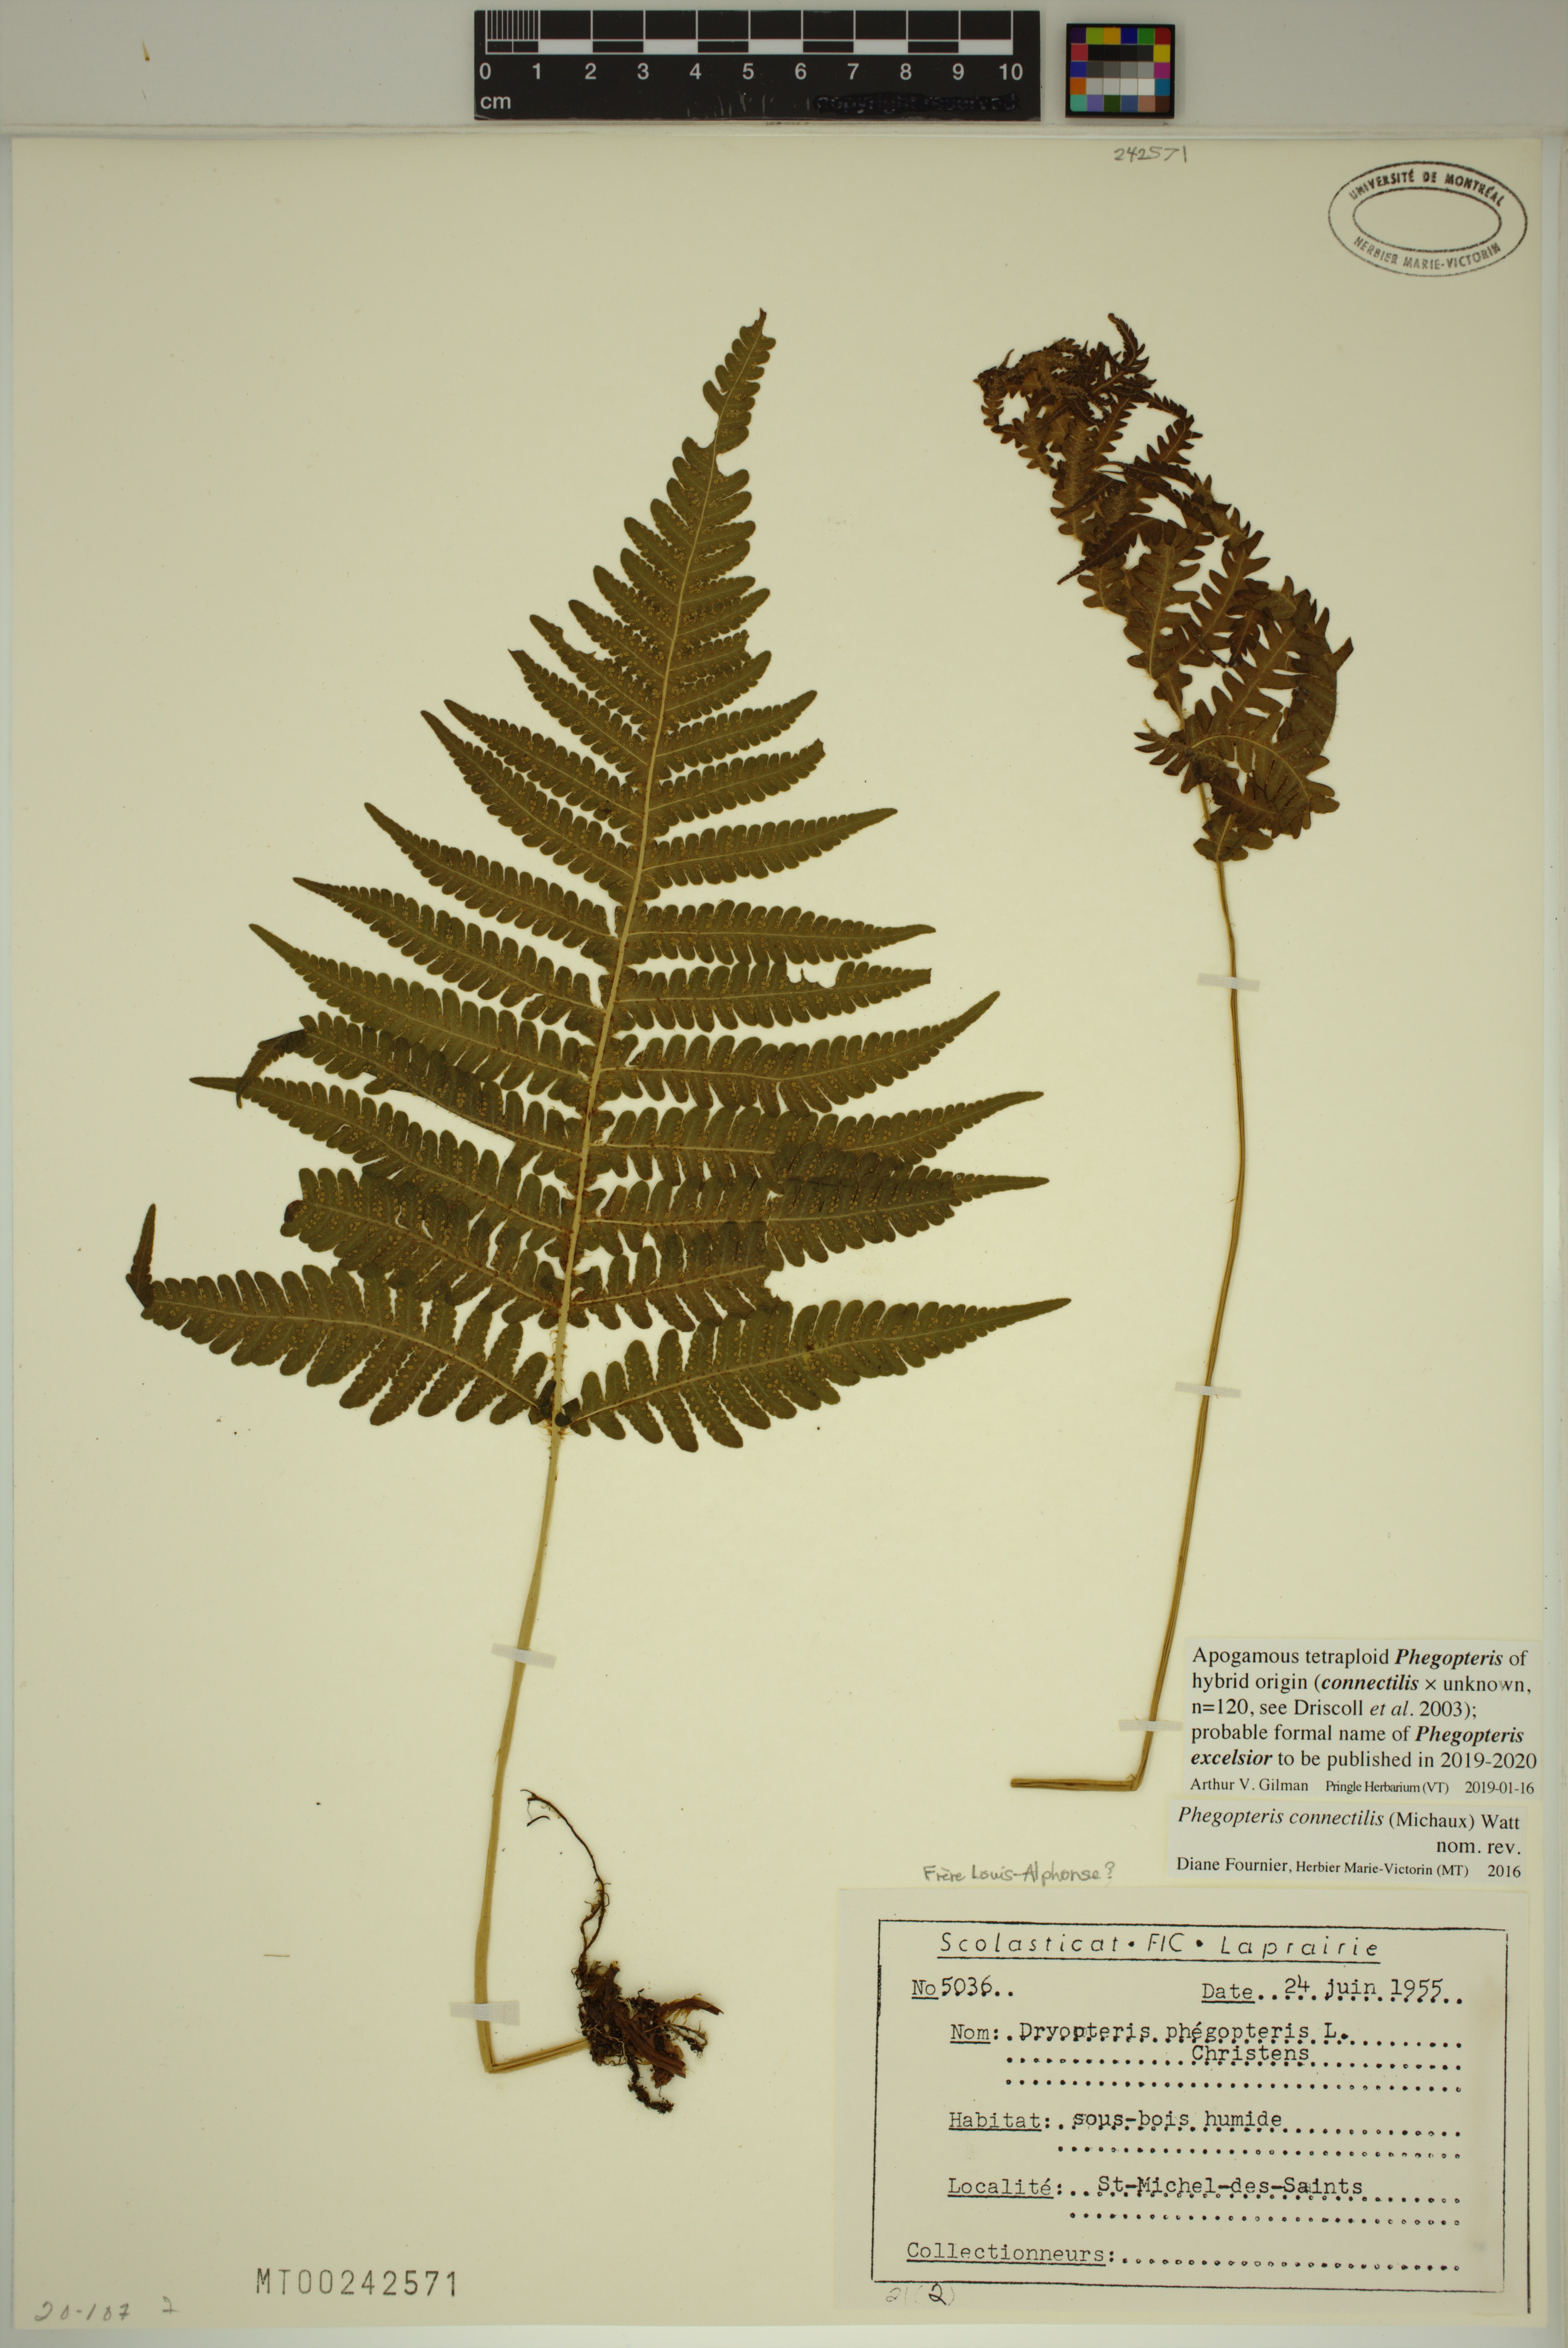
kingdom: Plantae
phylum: Tracheophyta
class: Polypodiopsida
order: Polypodiales
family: Thelypteridaceae
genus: Phegopteris
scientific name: Phegopteris
